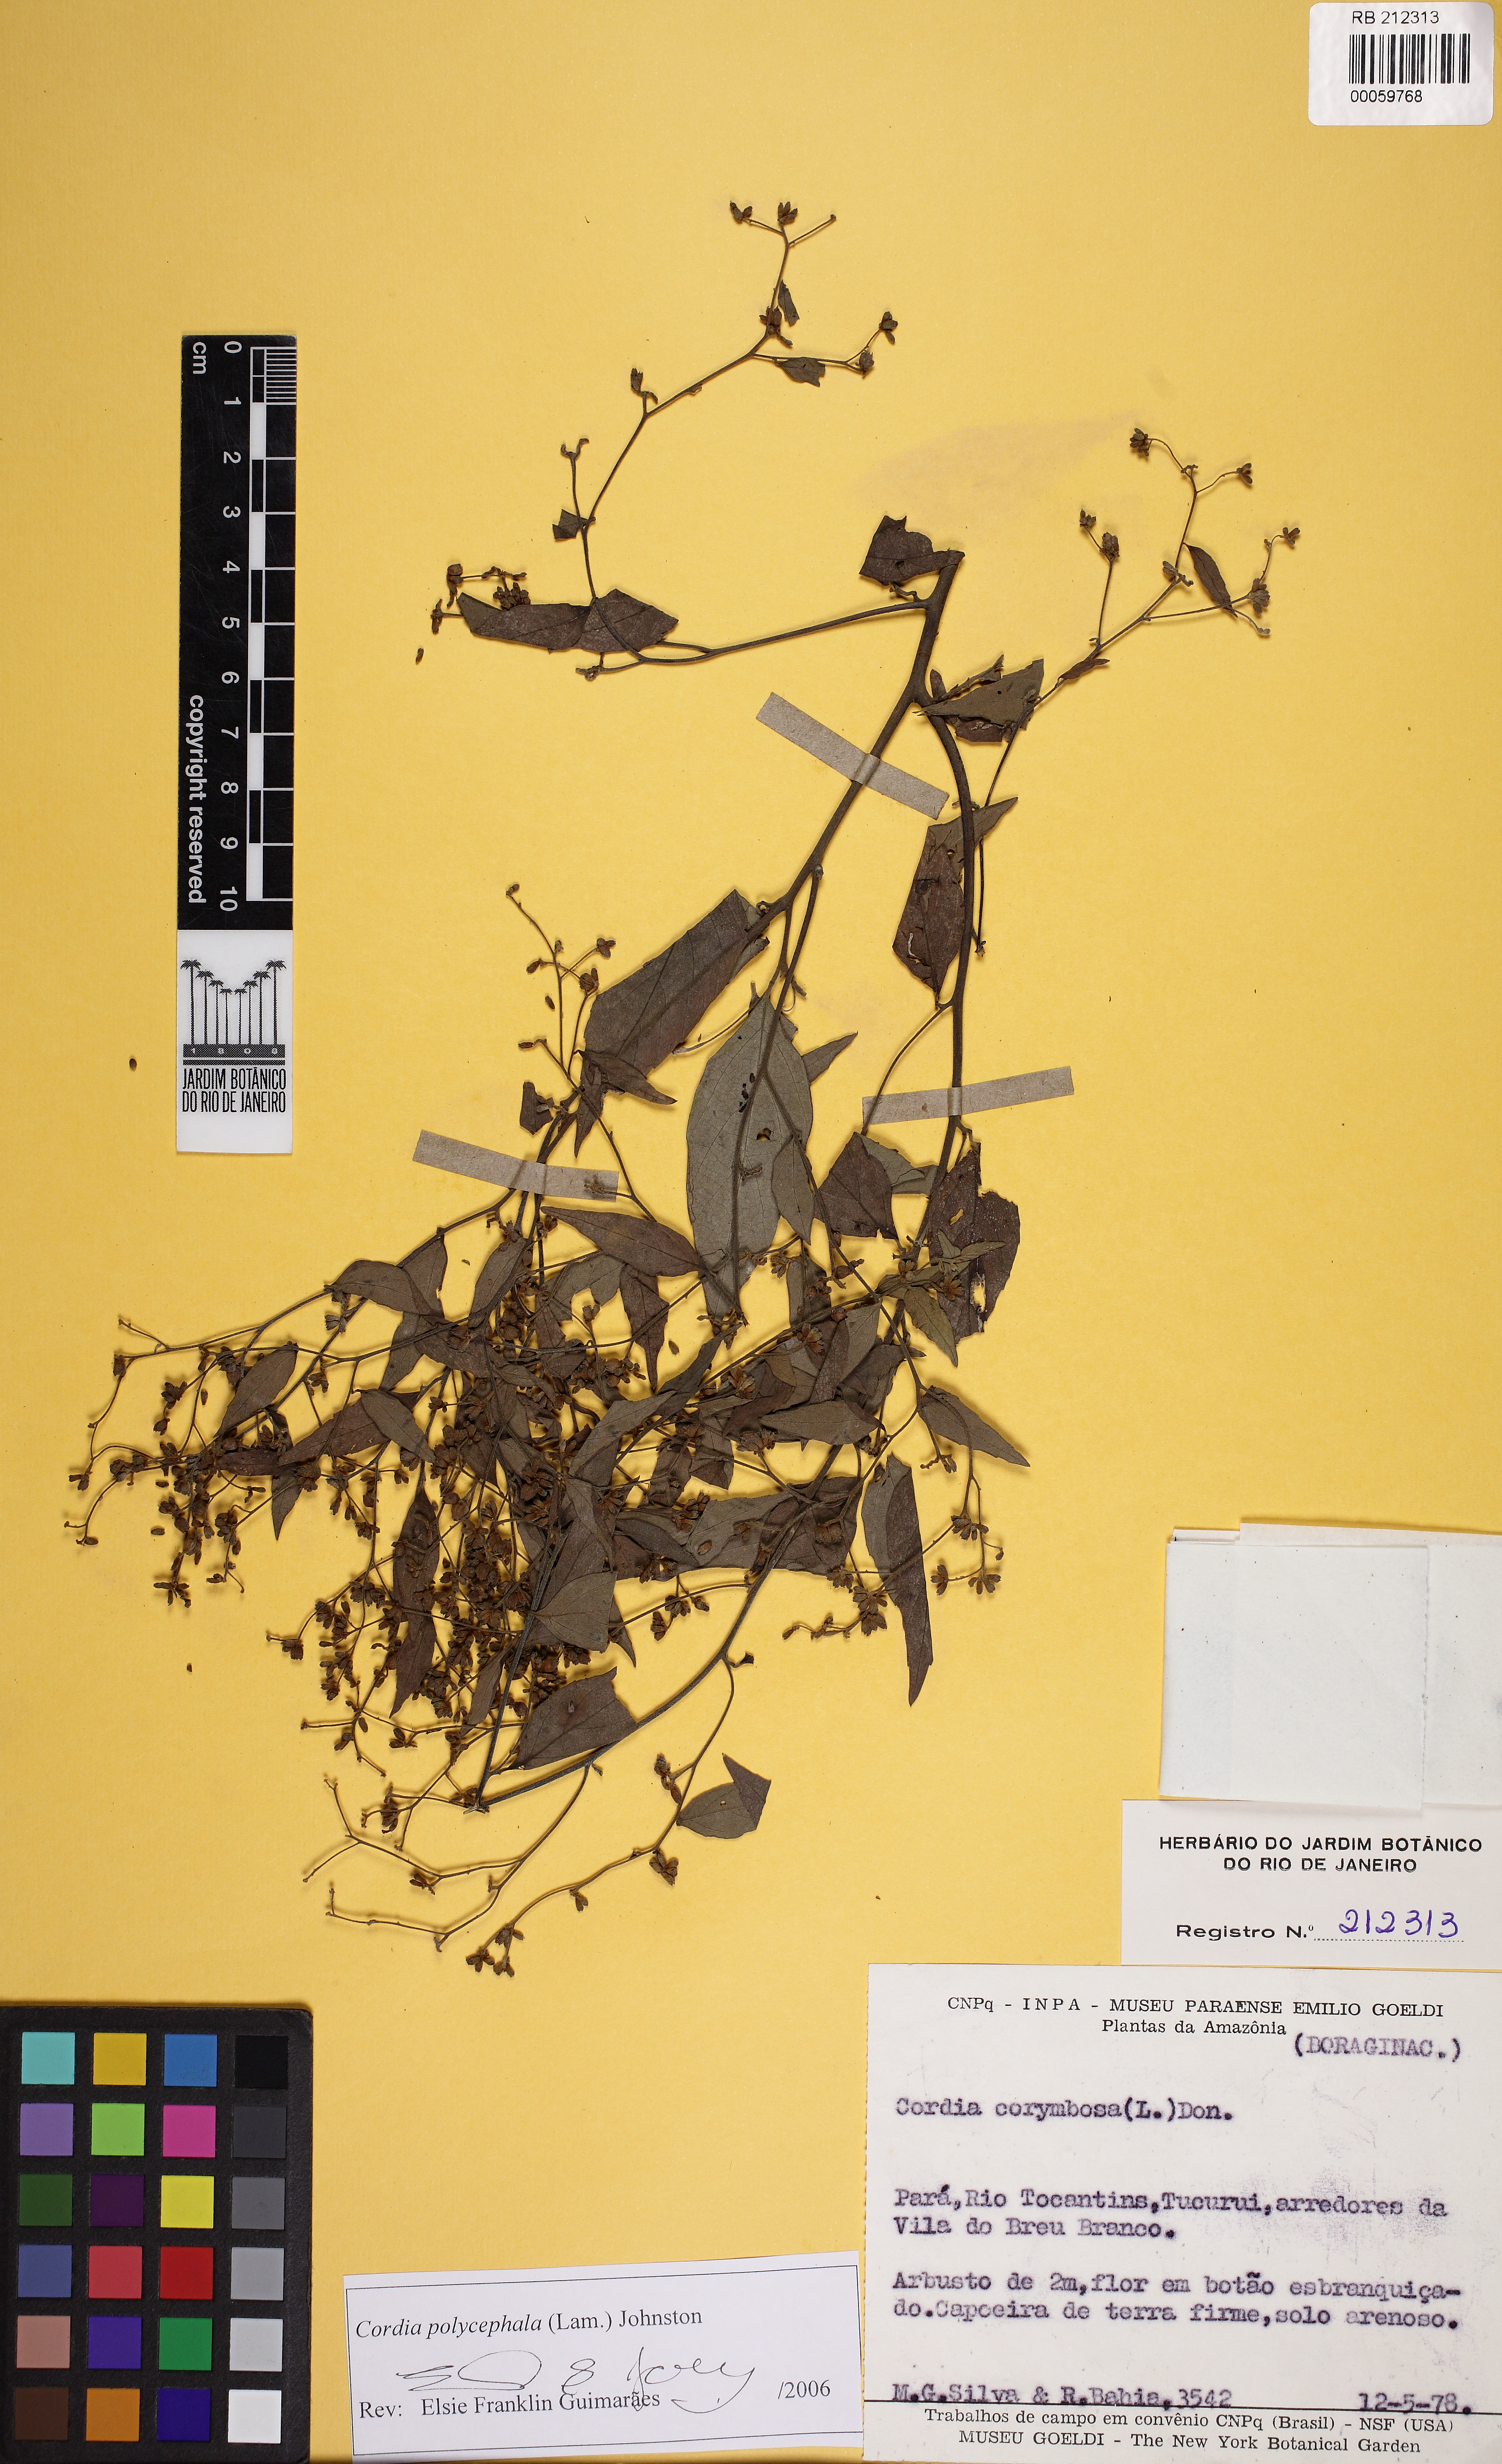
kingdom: Plantae
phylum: Tracheophyta
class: Magnoliopsida
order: Boraginales
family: Cordiaceae
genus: Varronia
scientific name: Varronia polycephala
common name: Black-sage
